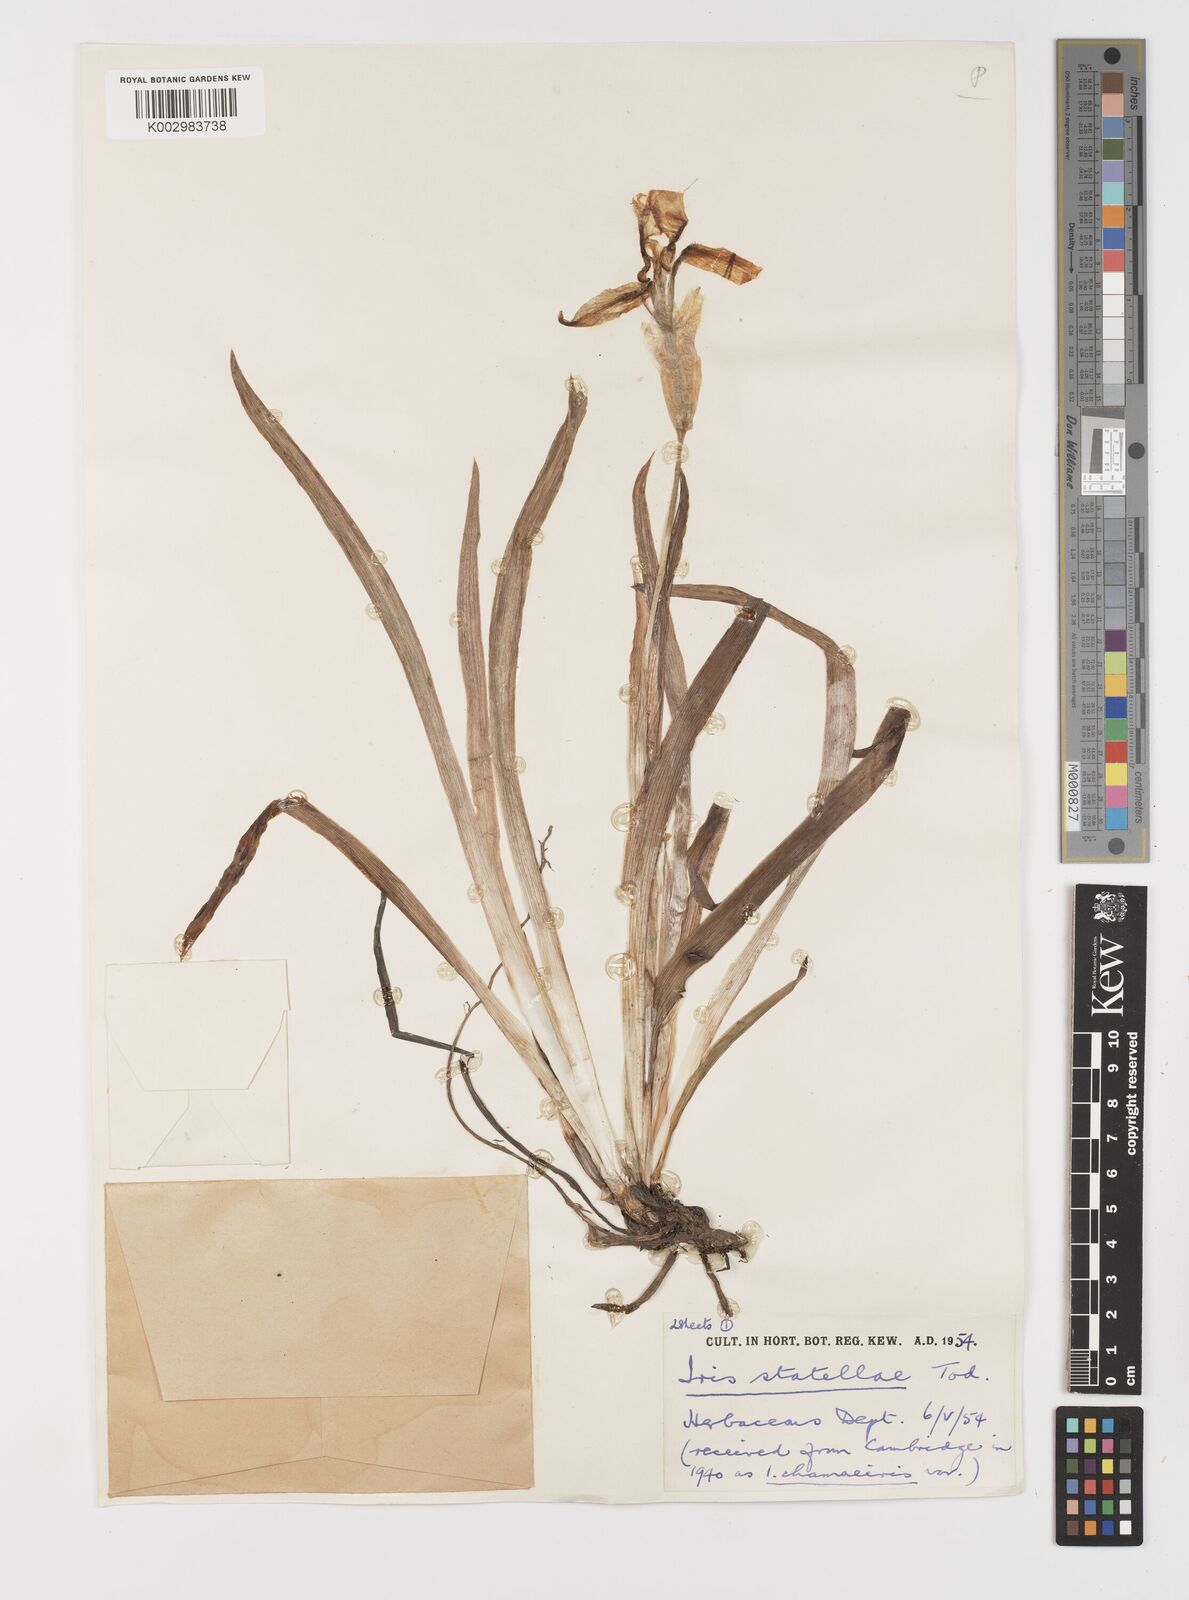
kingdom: Plantae
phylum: Tracheophyta
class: Liliopsida
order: Asparagales
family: Iridaceae
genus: Iris
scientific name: Iris lutescens
